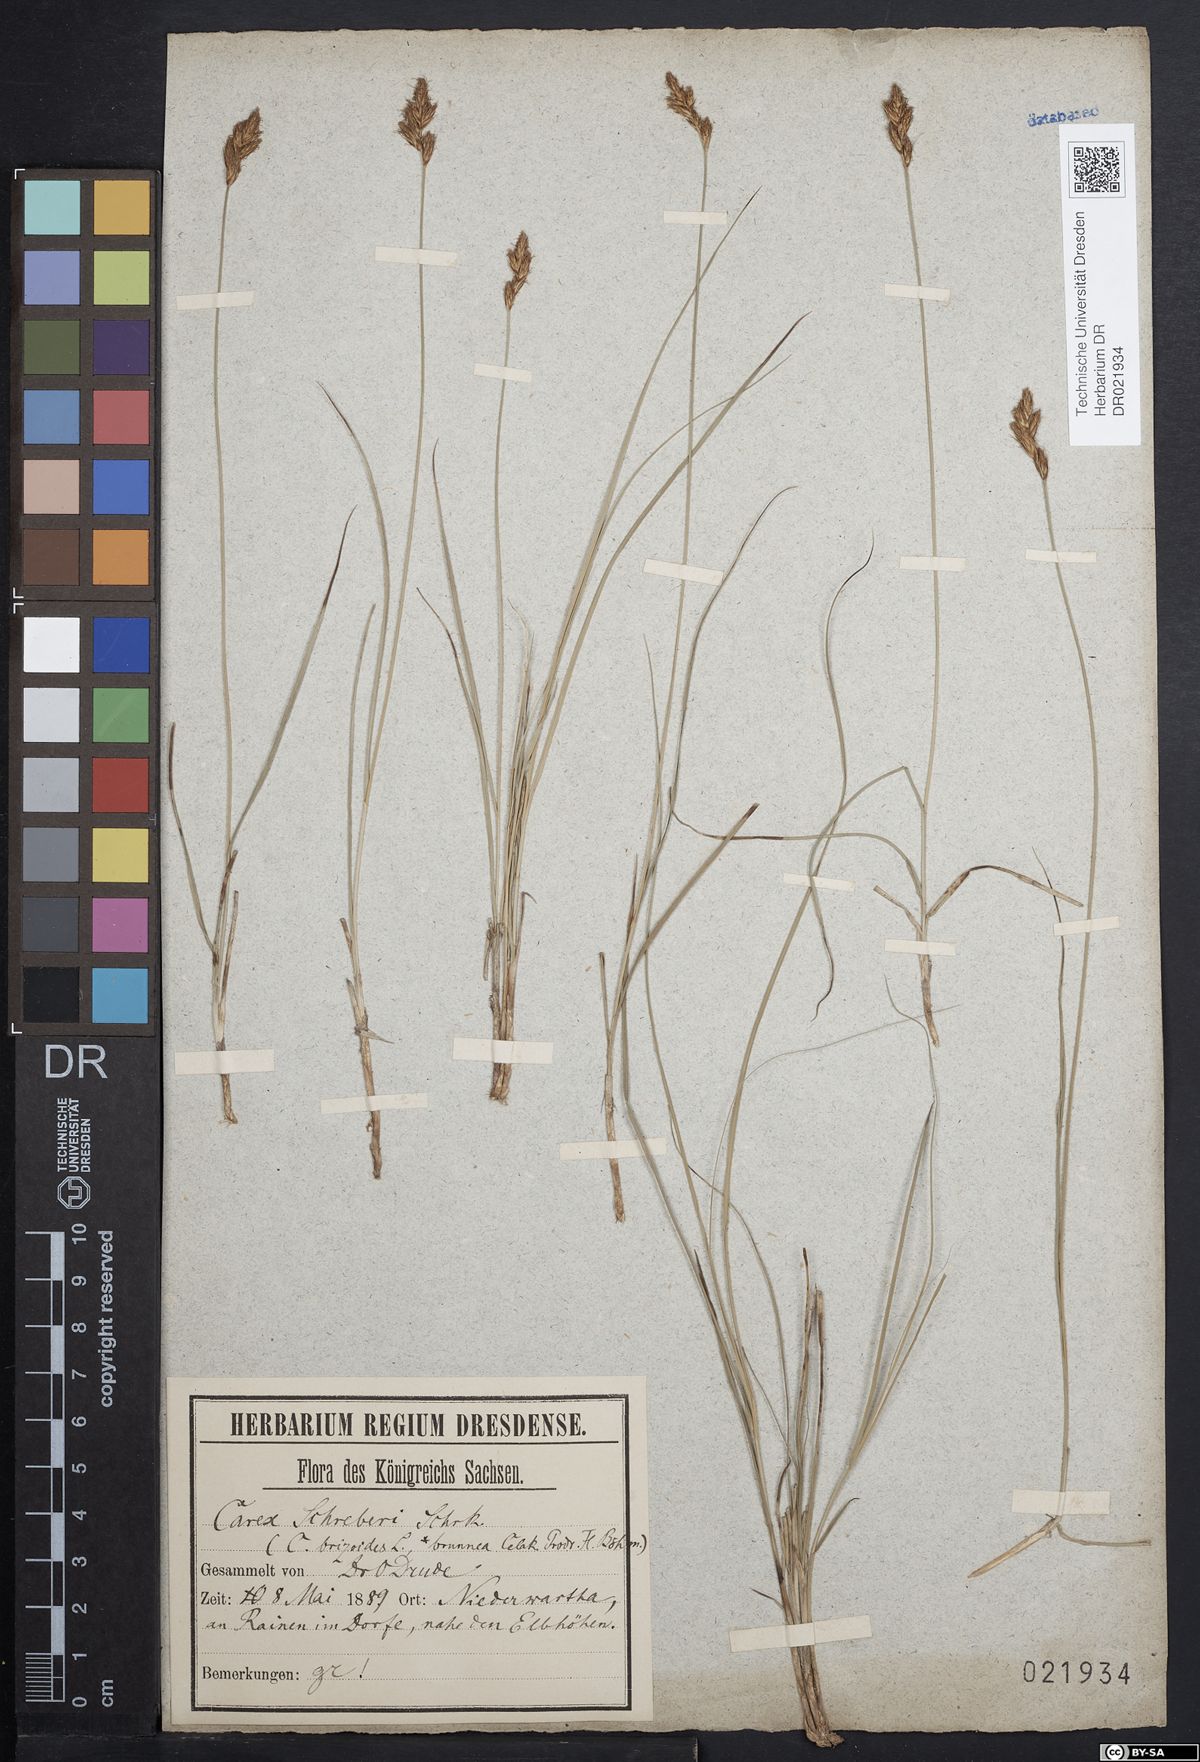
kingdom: Plantae
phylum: Tracheophyta
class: Liliopsida
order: Poales
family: Cyperaceae
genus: Carex
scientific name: Carex praecox
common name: Early sedge
